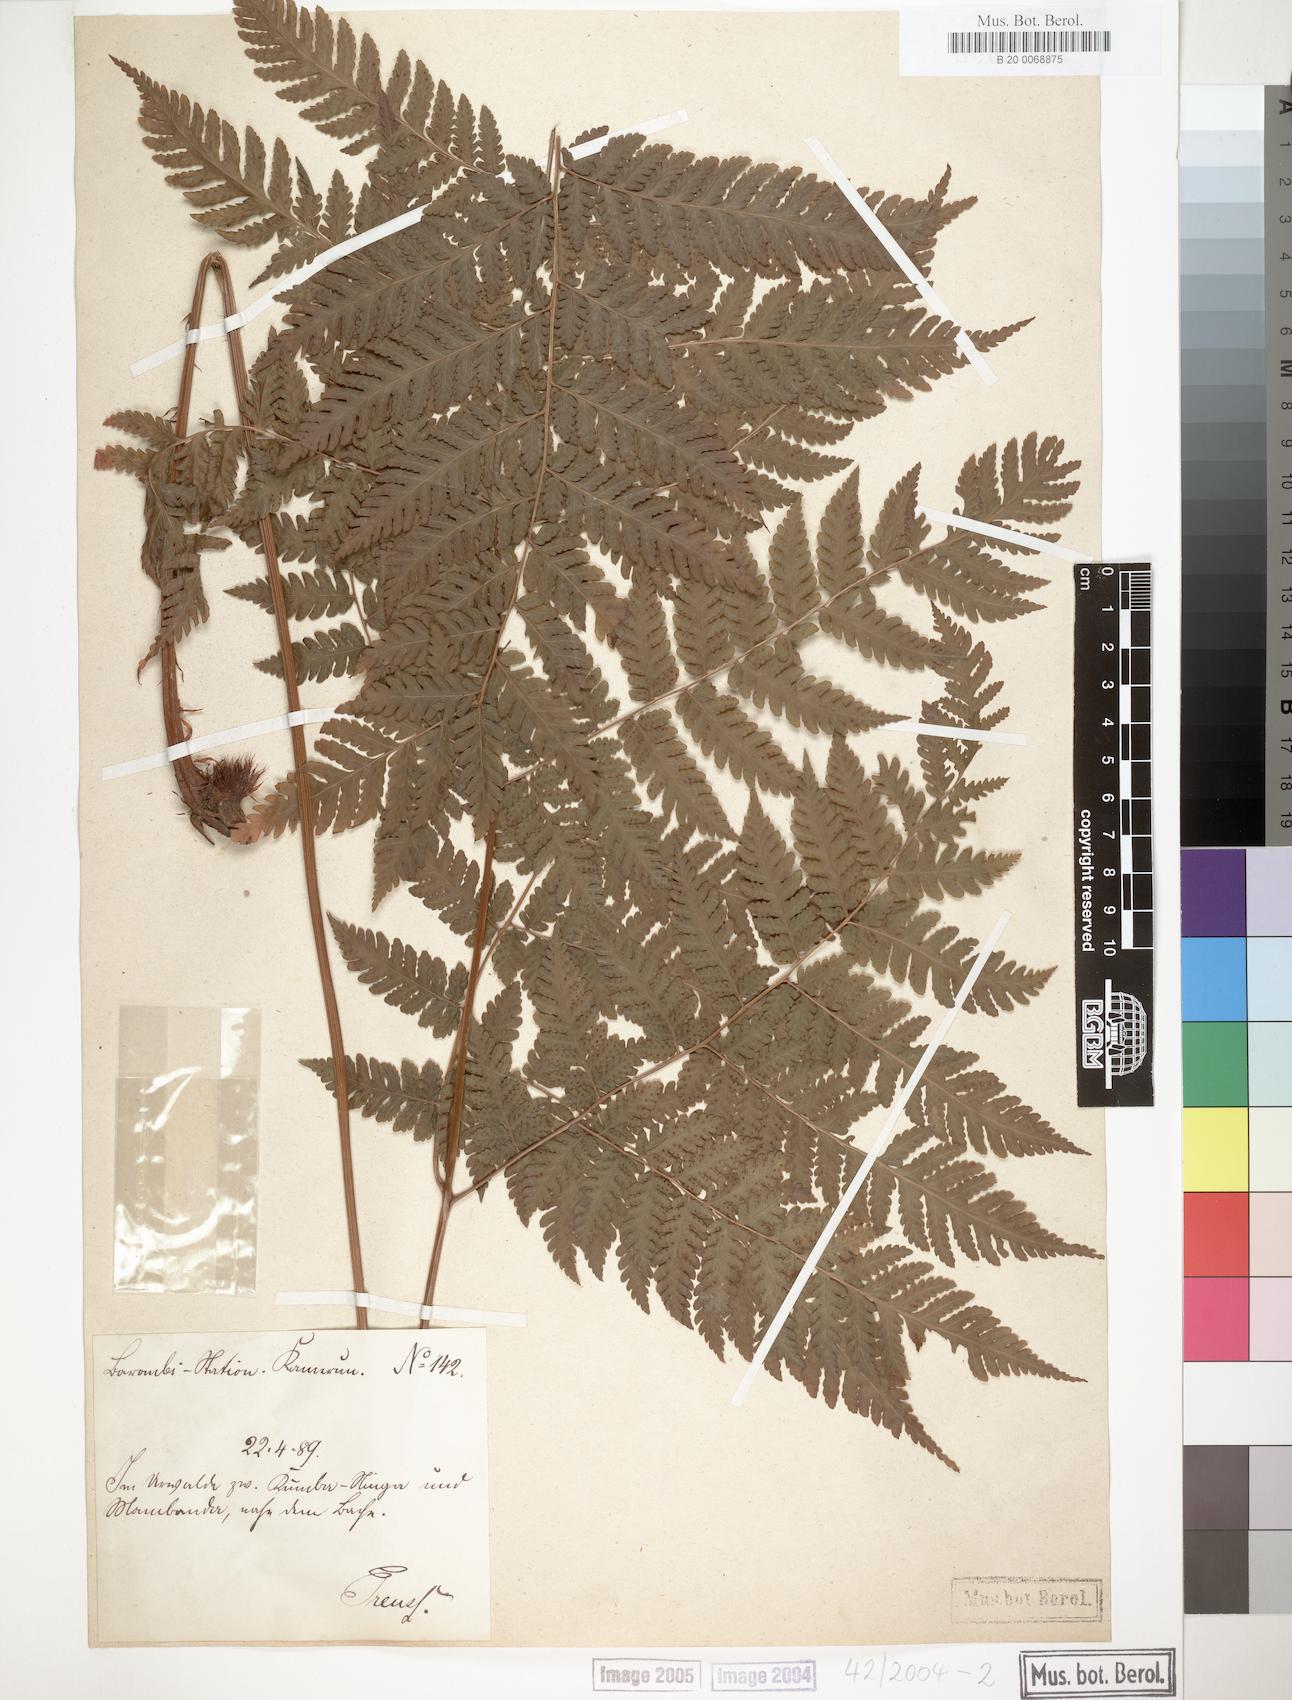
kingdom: Plantae
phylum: Tracheophyta
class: Polypodiopsida
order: Polypodiales
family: Dryopteridaceae
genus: Parapolystichum
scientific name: Parapolystichum currorii
